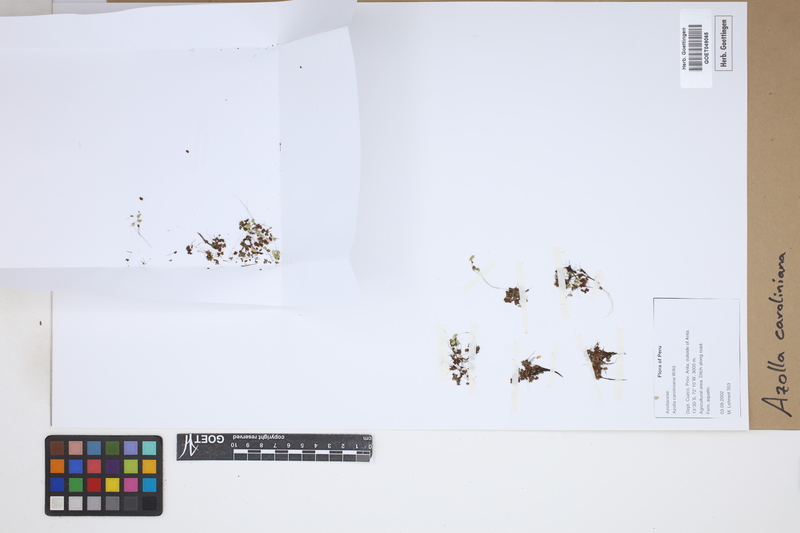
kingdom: Plantae
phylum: Tracheophyta
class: Polypodiopsida
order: Salviniales
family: Salviniaceae
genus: Azolla
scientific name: Azolla caroliniana
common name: Carolina mosquitofern
